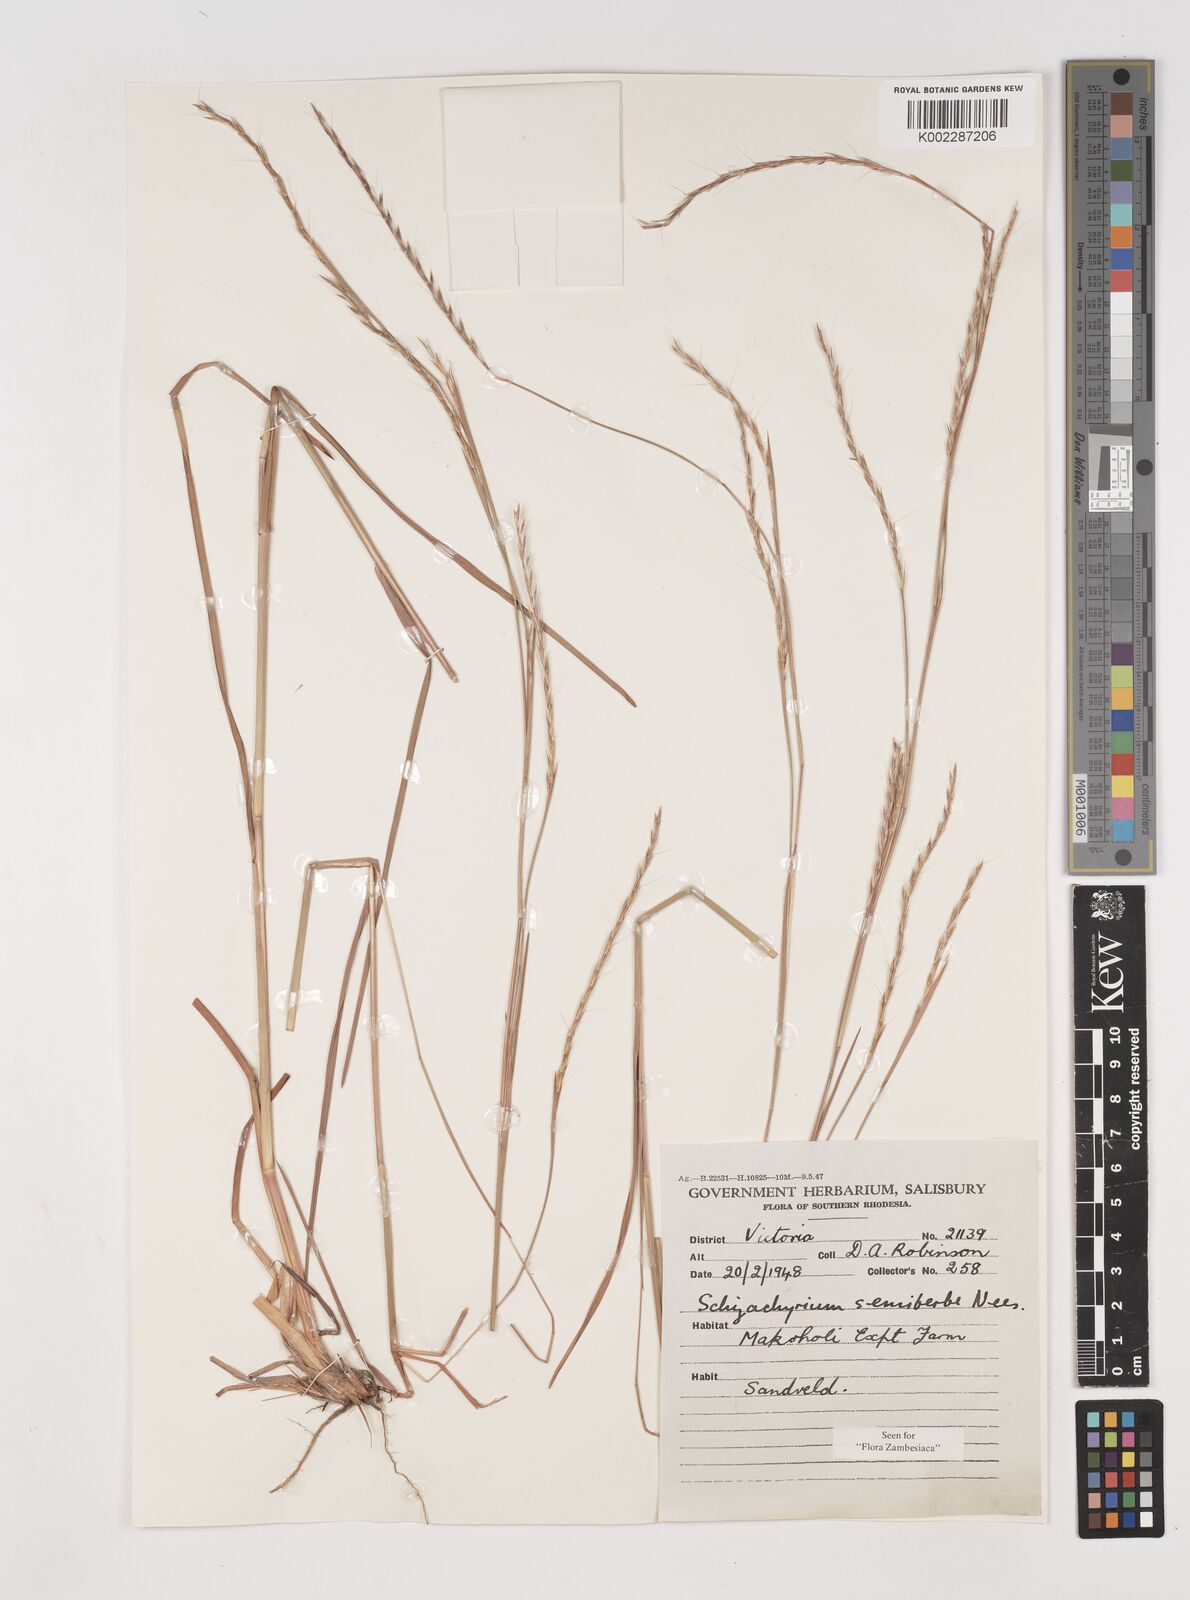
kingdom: Plantae
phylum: Tracheophyta
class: Liliopsida
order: Poales
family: Poaceae
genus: Schizachyrium
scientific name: Schizachyrium sanguineum
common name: Crimson bluestem
